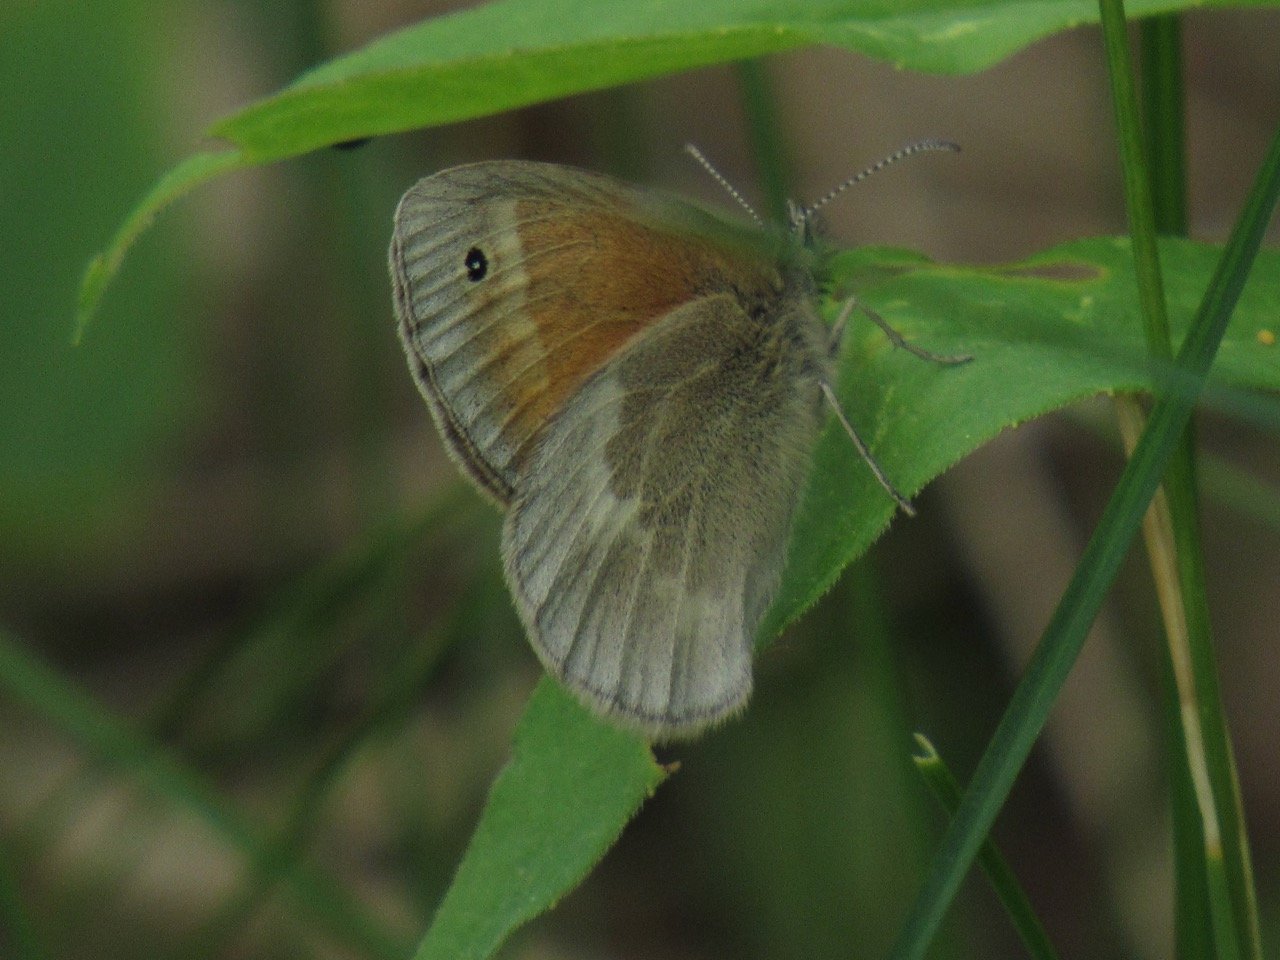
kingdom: Animalia
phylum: Arthropoda
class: Insecta
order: Lepidoptera
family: Nymphalidae
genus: Coenonympha
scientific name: Coenonympha tullia
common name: Large Heath
